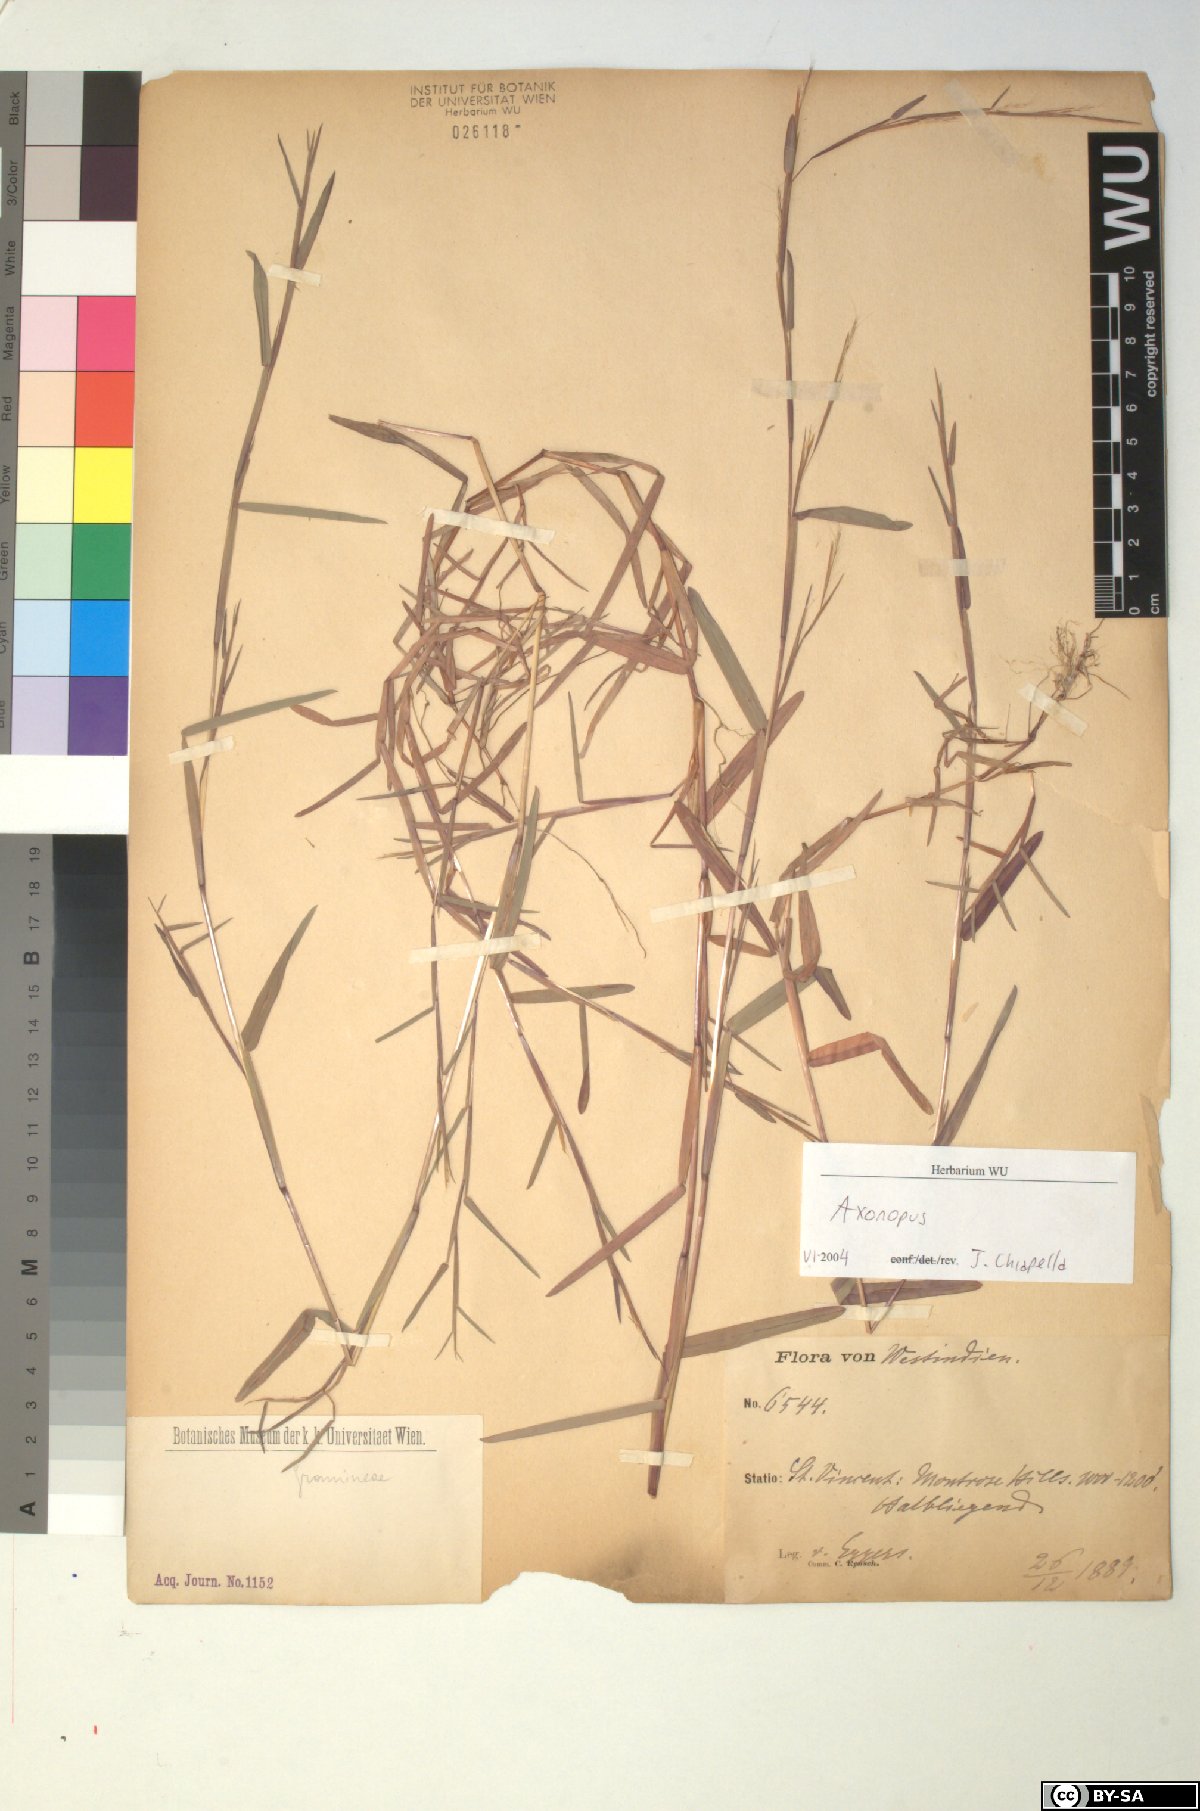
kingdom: Plantae
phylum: Tracheophyta
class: Liliopsida
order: Poales
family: Poaceae
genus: Axonopus
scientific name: Axonopus
